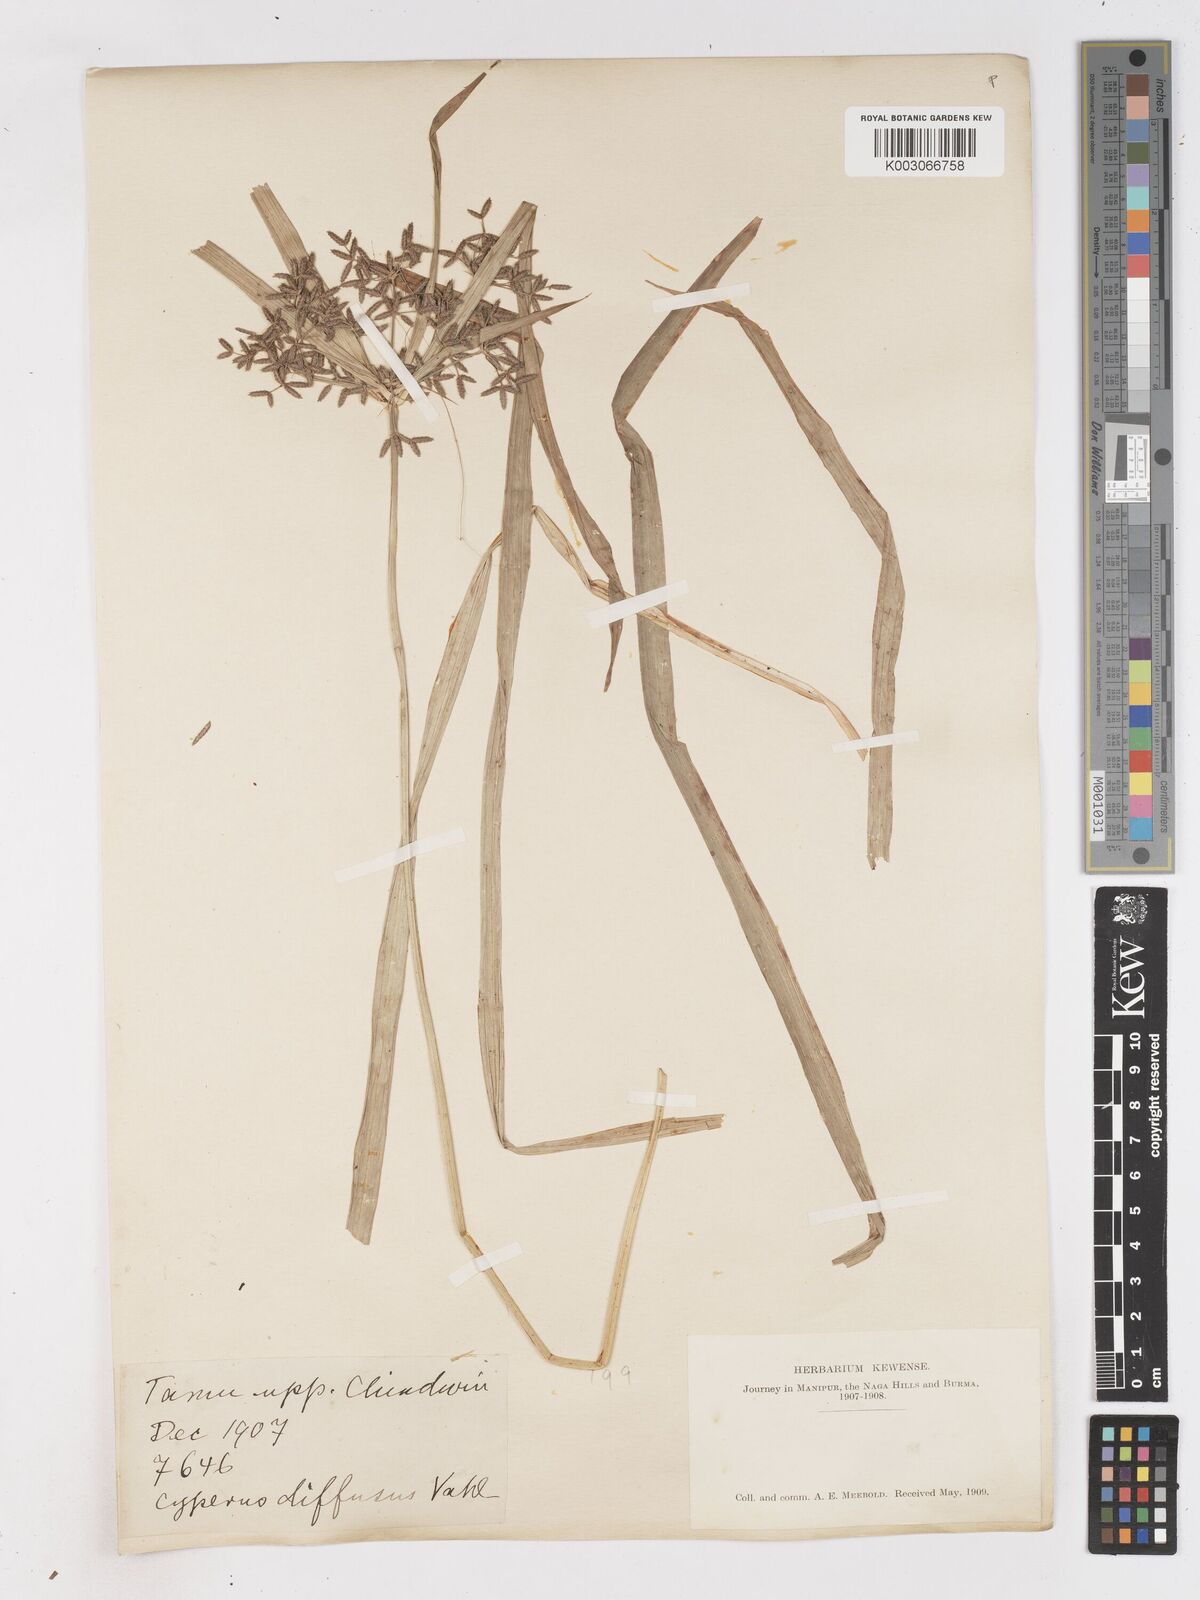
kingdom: Plantae
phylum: Tracheophyta
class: Liliopsida
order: Poales
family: Cyperaceae
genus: Cyperus
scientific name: Cyperus diffusus
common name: Dwarf umbrella grass
